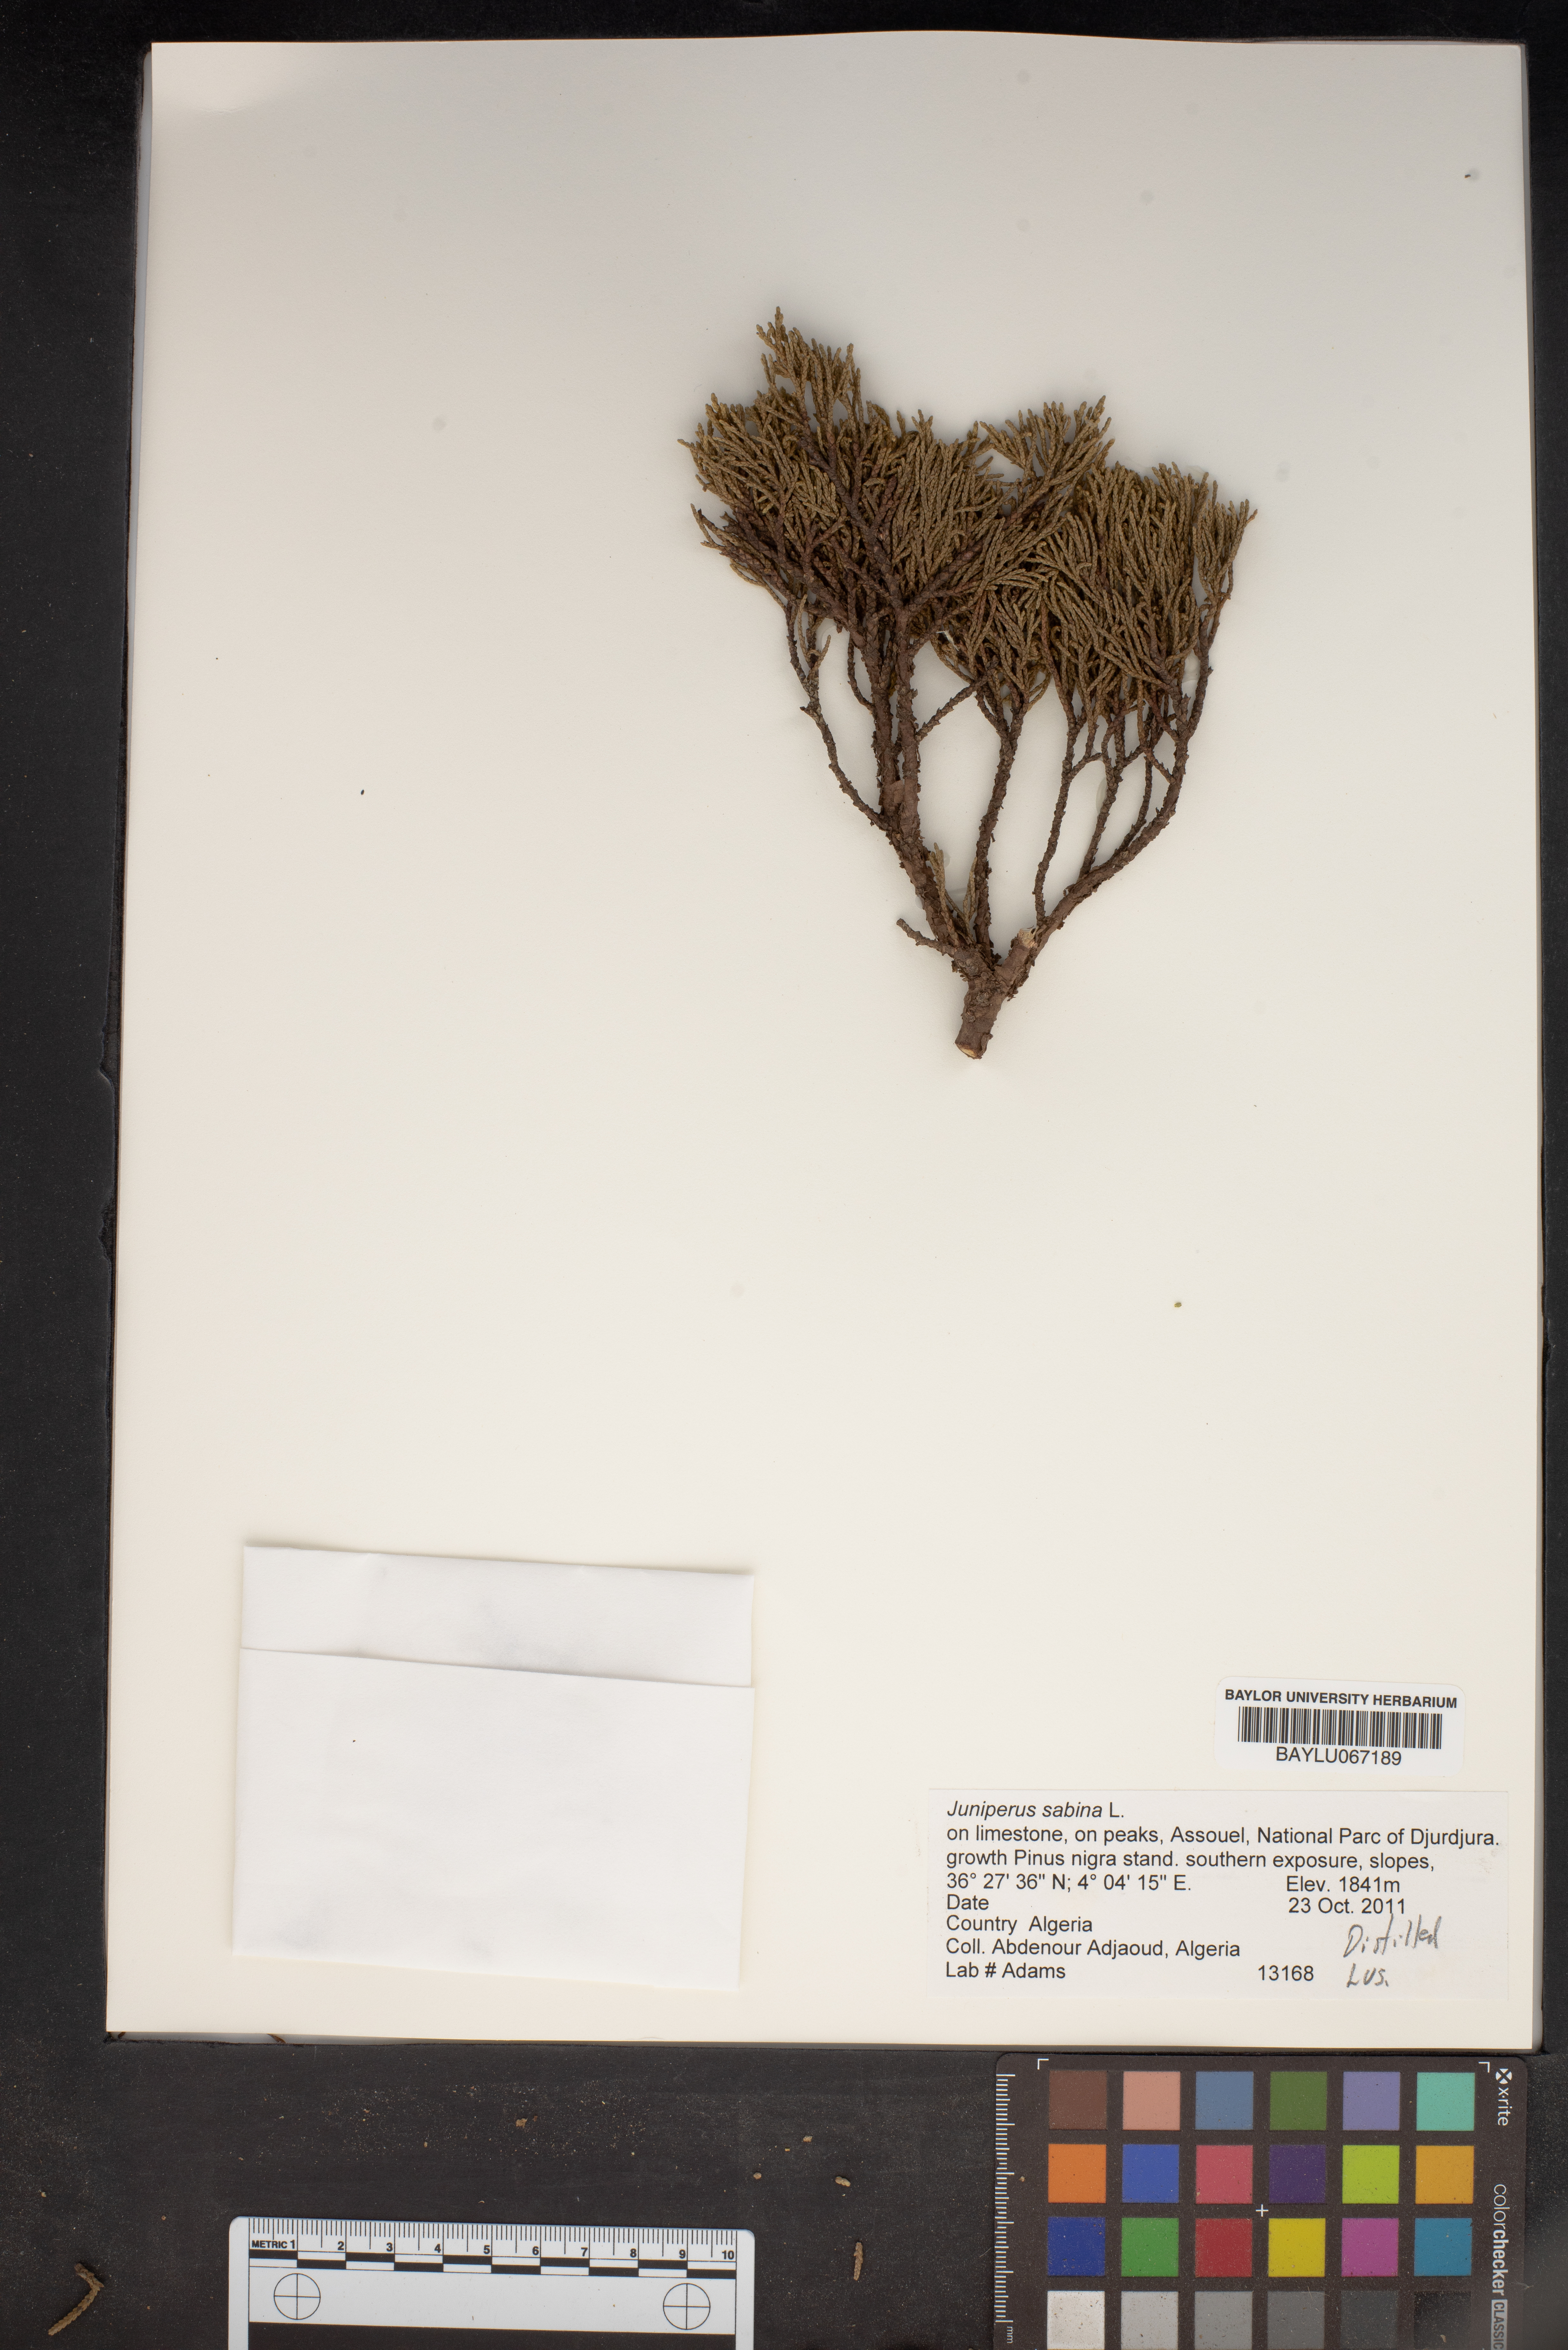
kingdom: Plantae
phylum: Tracheophyta
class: Pinopsida
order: Pinales
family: Cupressaceae
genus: Juniperus
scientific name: Juniperus sabina
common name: Savin
